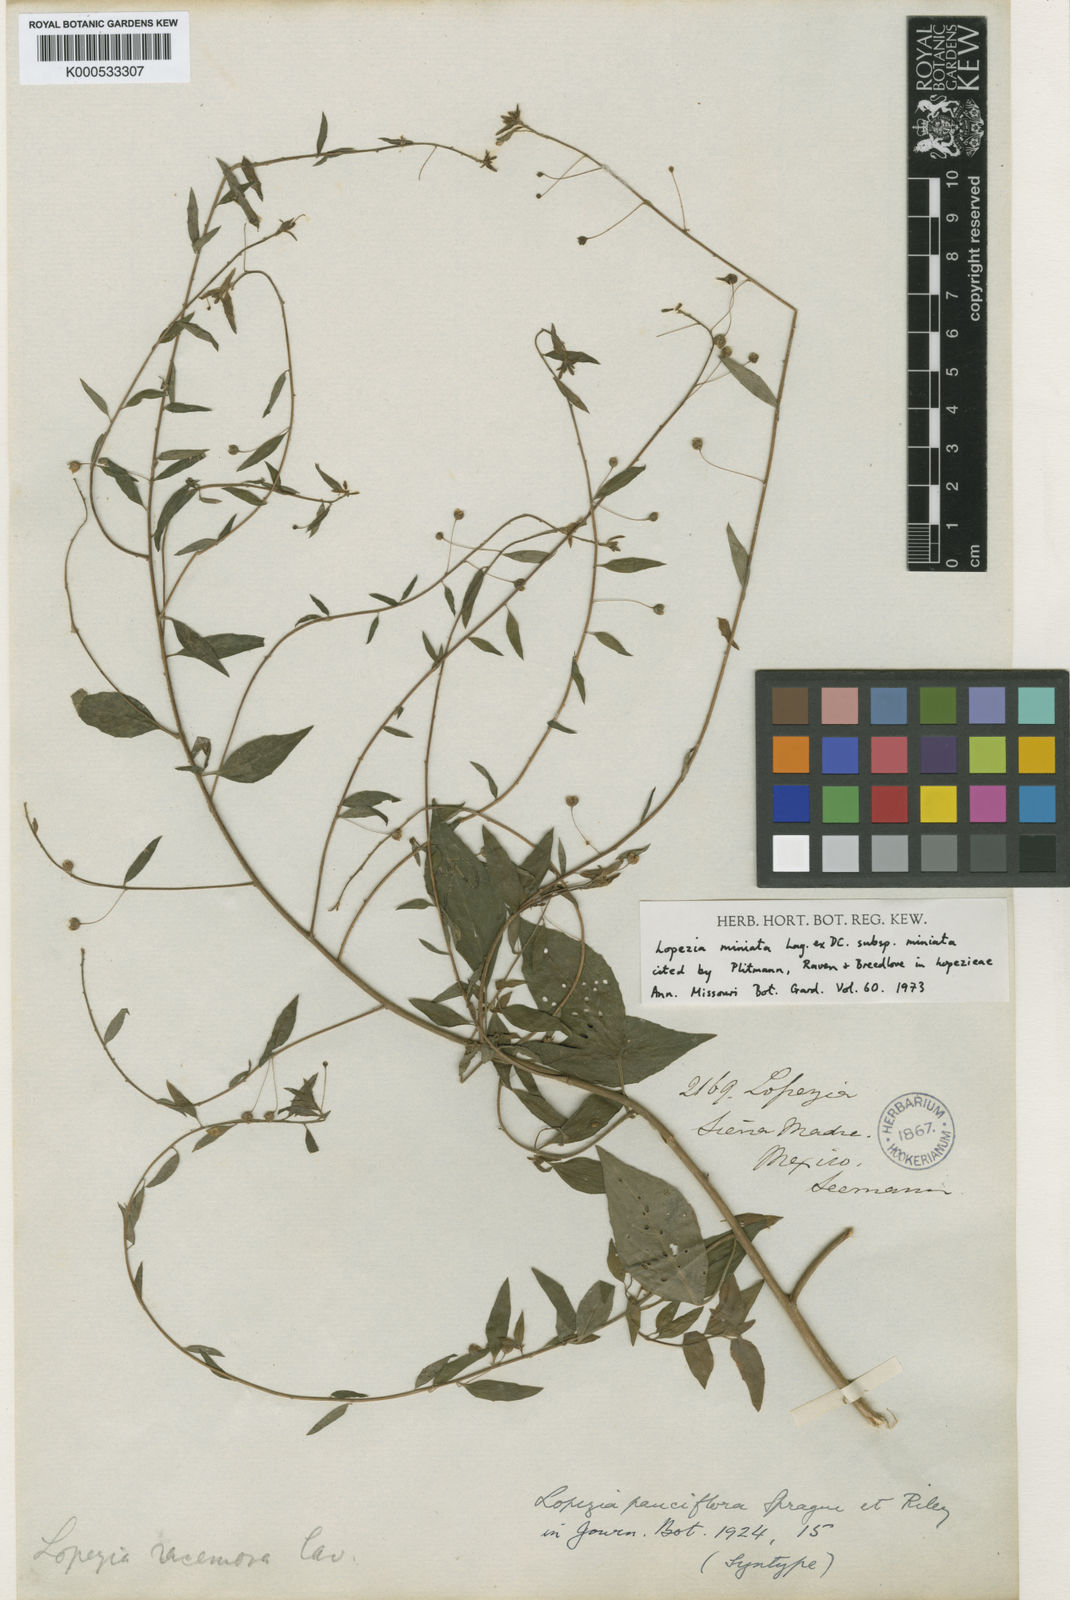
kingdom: Plantae
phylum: Tracheophyta
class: Magnoliopsida
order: Myrtales
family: Onagraceae
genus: Lopezia
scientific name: Lopezia miniata
